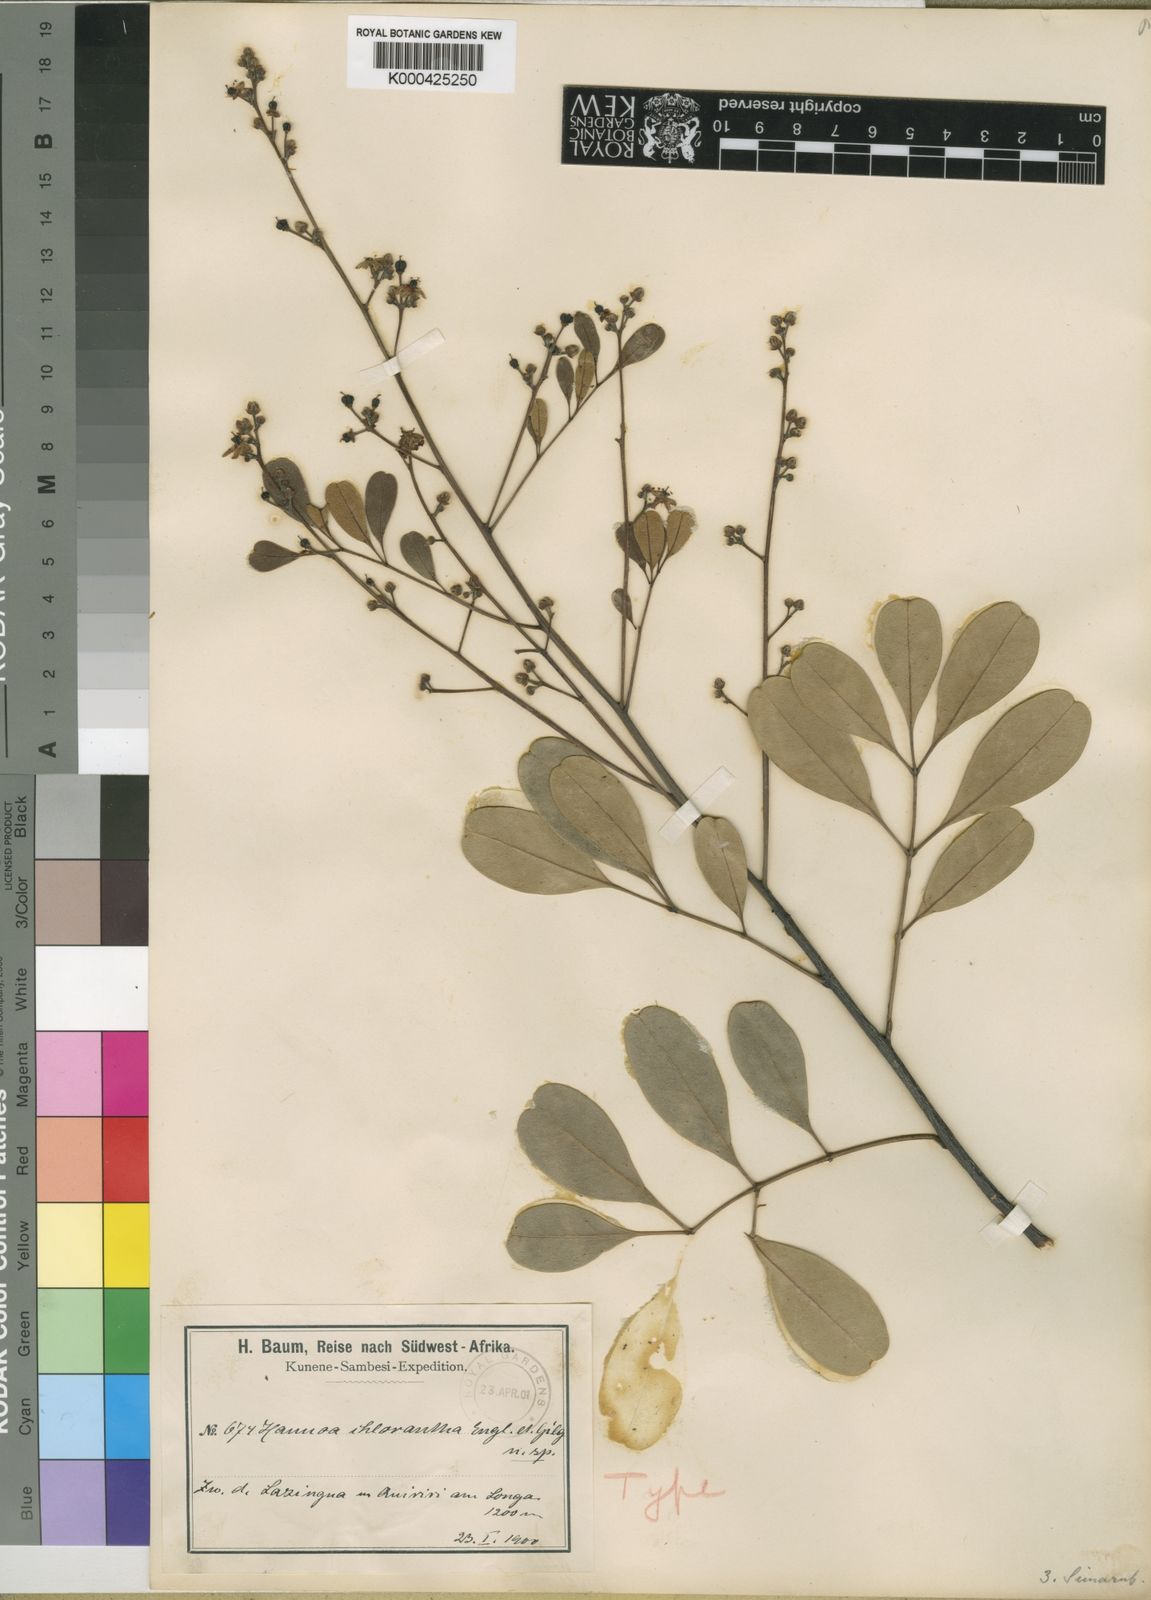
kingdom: Plantae
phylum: Tracheophyta
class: Magnoliopsida
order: Sapindales
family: Simaroubaceae
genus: Odyendyea
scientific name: Odyendyea klaineana
